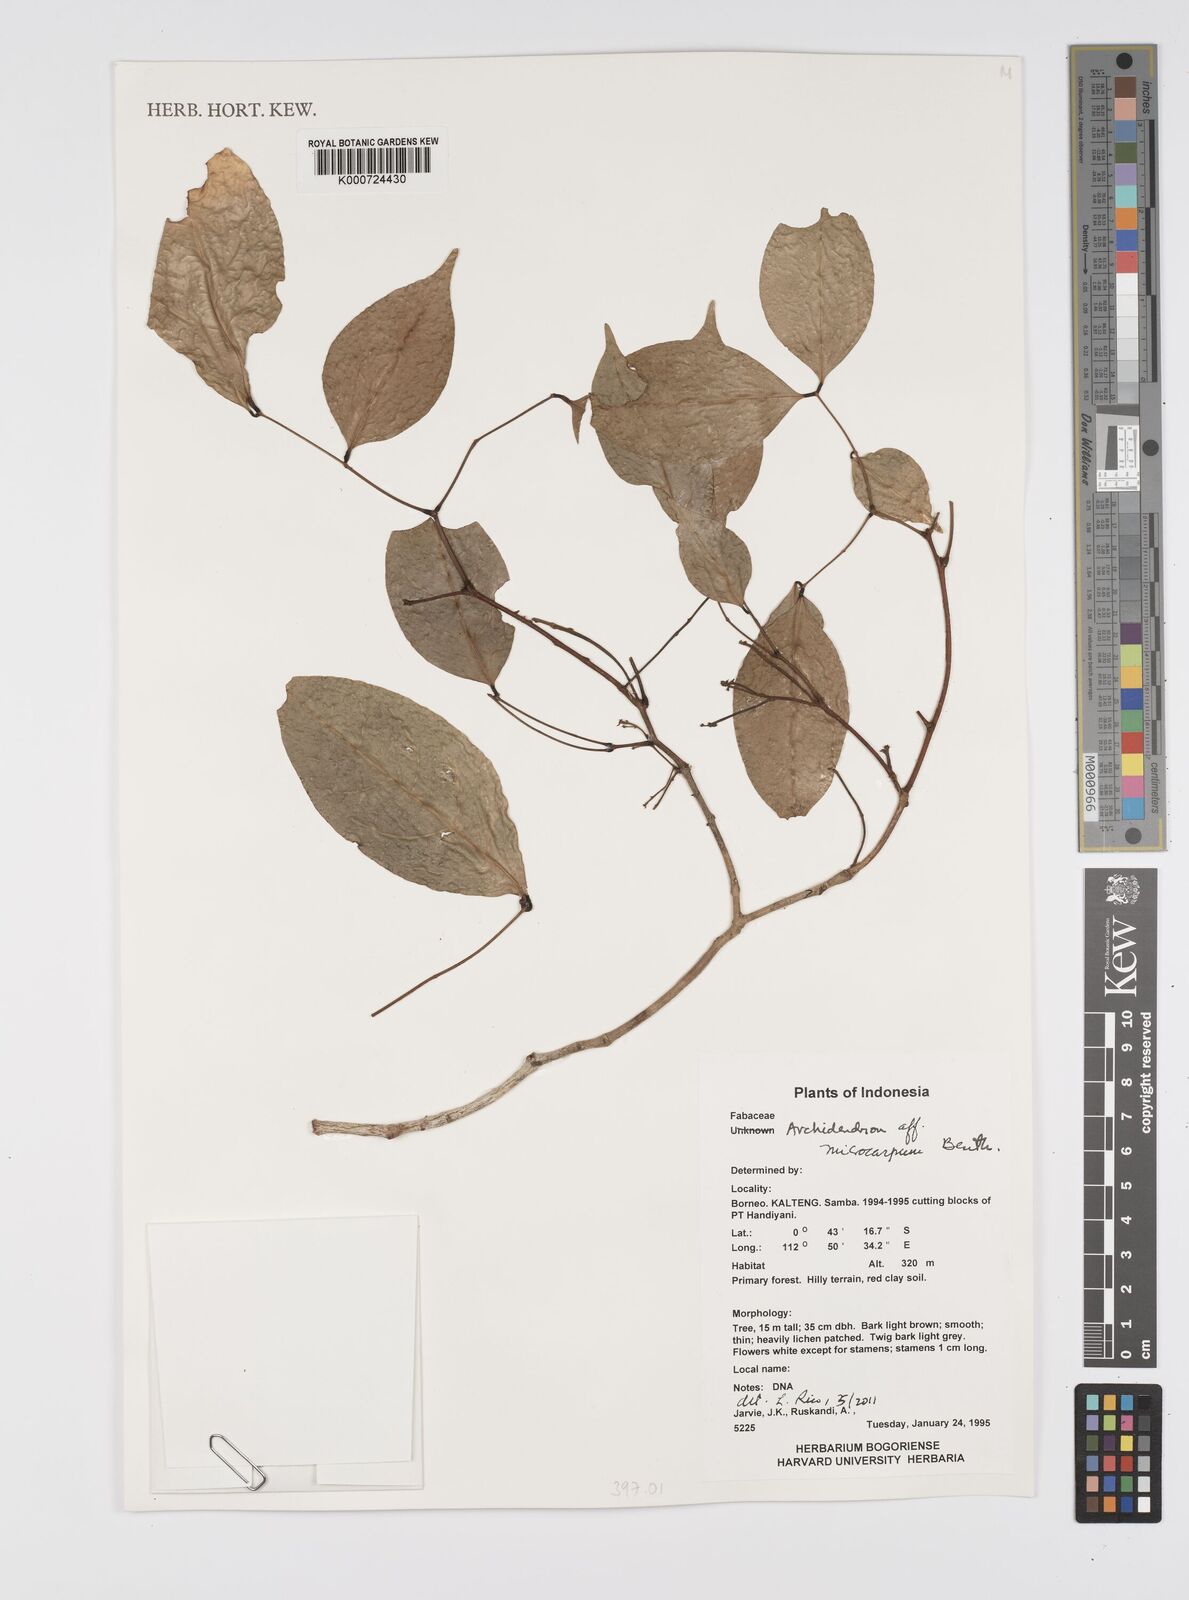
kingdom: Plantae
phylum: Tracheophyta
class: Magnoliopsida
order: Fabales
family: Fabaceae
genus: Archidendron
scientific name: Archidendron microcarpum
